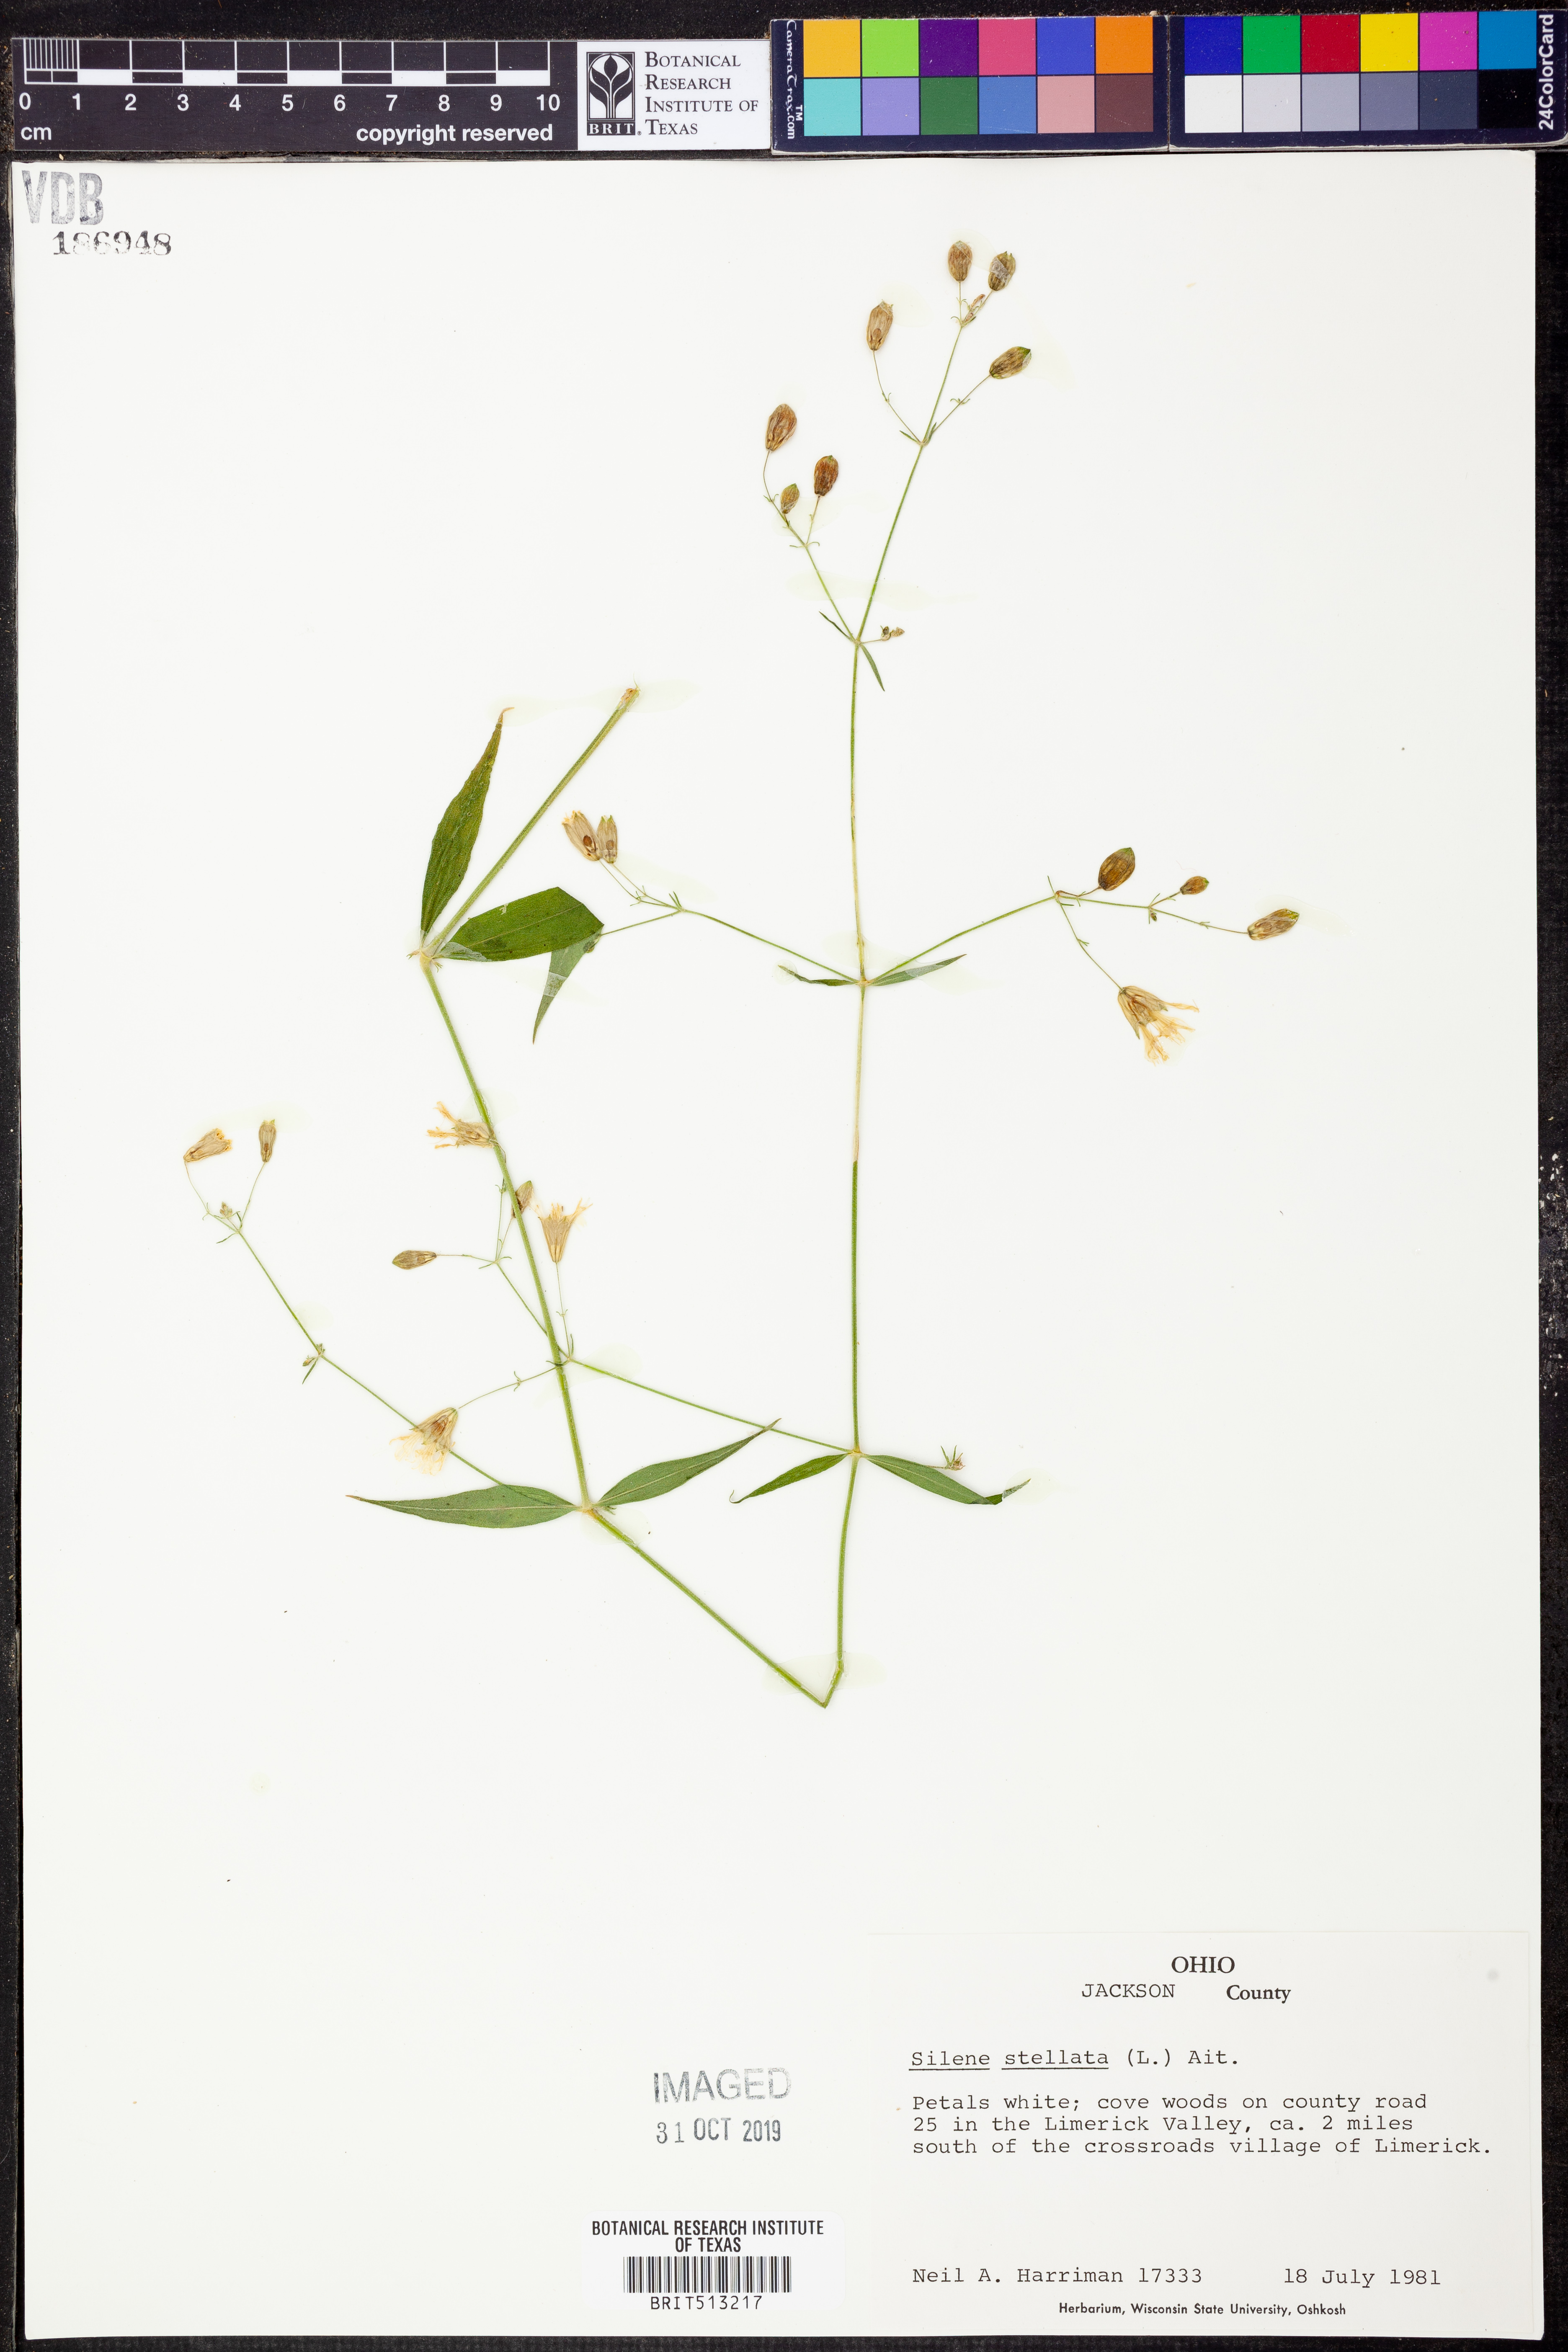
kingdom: Plantae
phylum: Tracheophyta
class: Magnoliopsida
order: Caryophyllales
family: Caryophyllaceae
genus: Silene
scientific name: Silene stellata
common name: Starry campion
